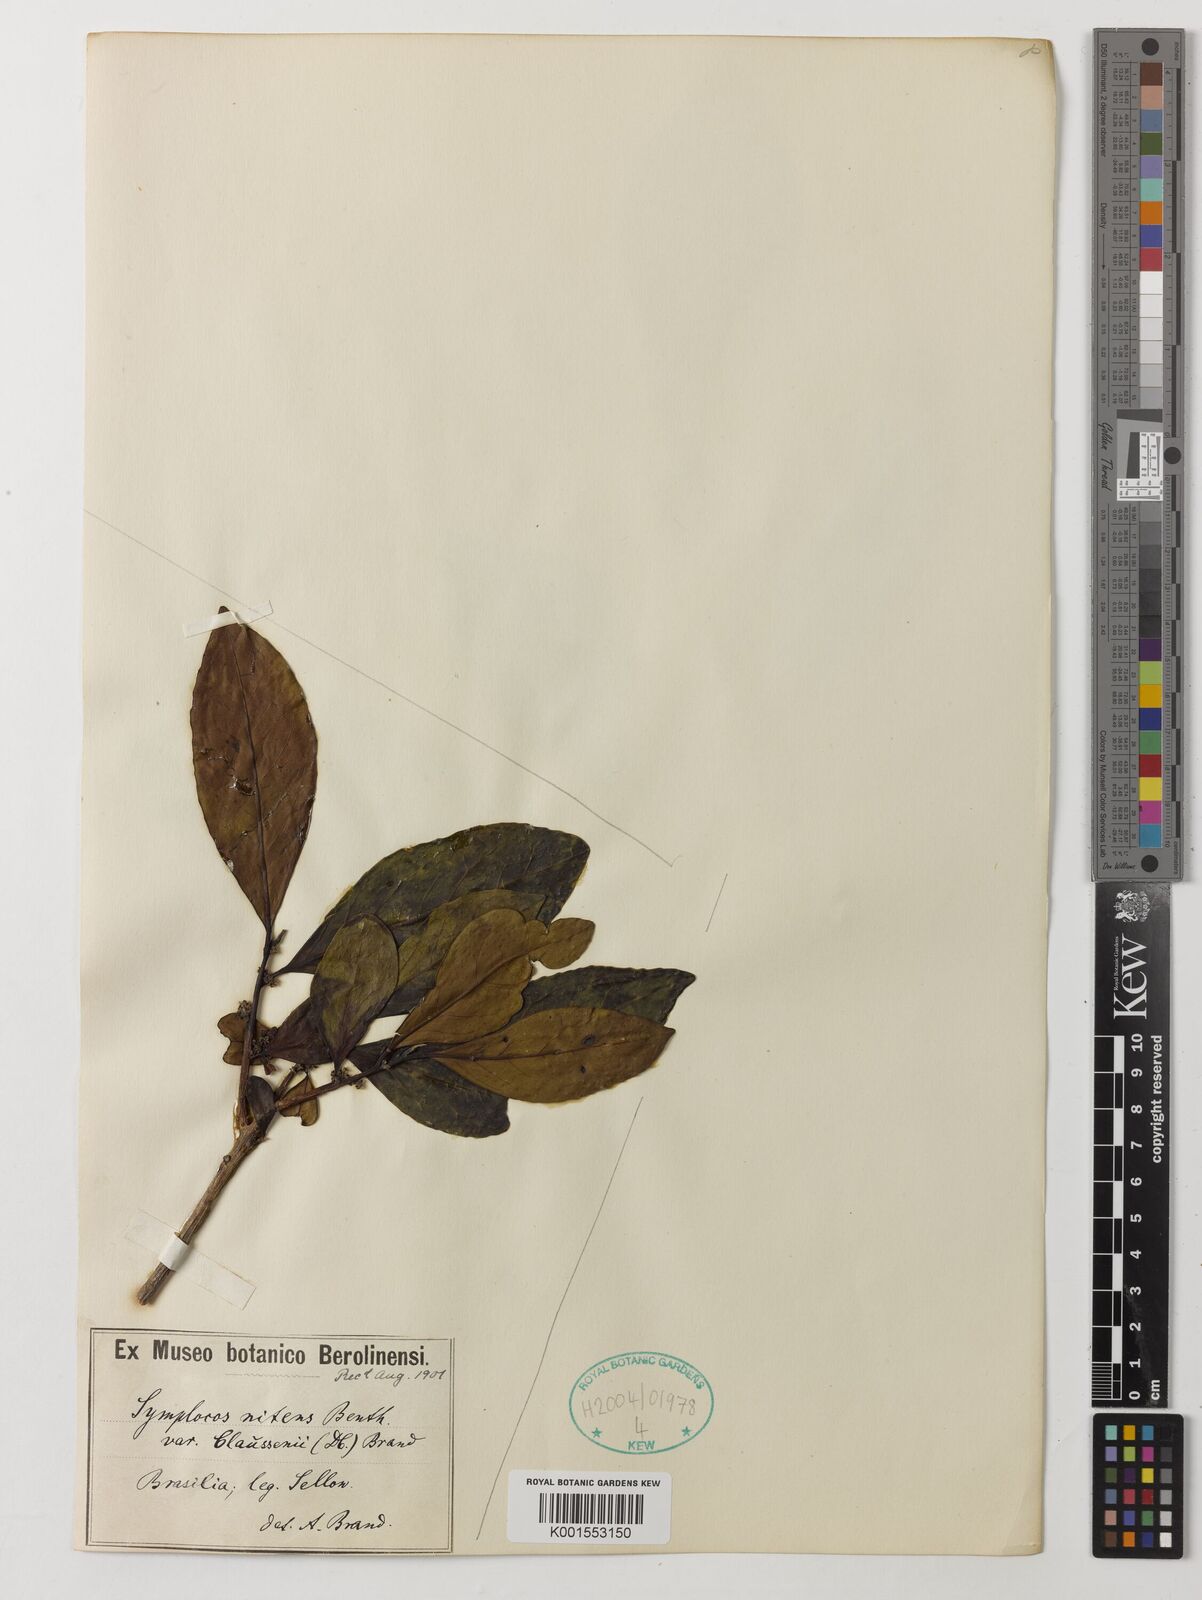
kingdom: Plantae
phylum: Tracheophyta
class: Magnoliopsida
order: Ericales
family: Symplocaceae
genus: Symplocos
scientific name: Symplocos nitens
